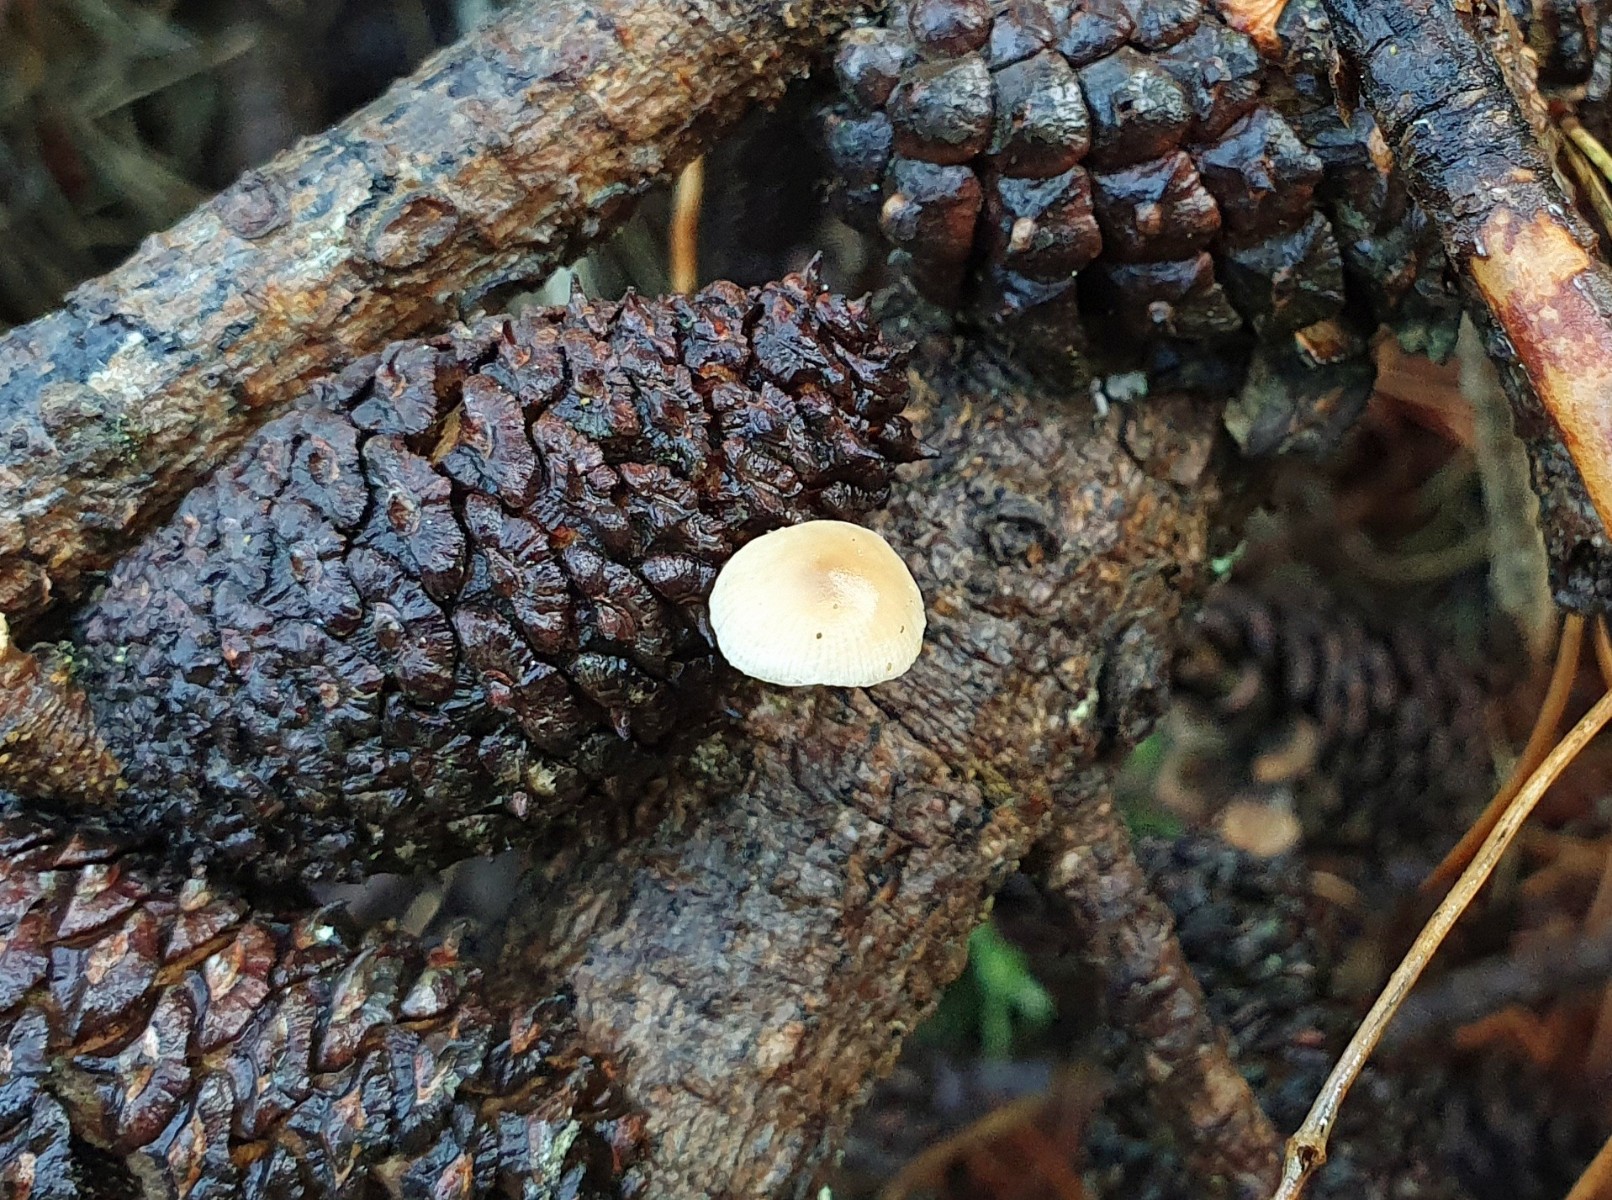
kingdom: Fungi
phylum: Basidiomycota
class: Agaricomycetes
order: Agaricales
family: Marasmiaceae
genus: Baeospora
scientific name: Baeospora myosura
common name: koglebruskhat
